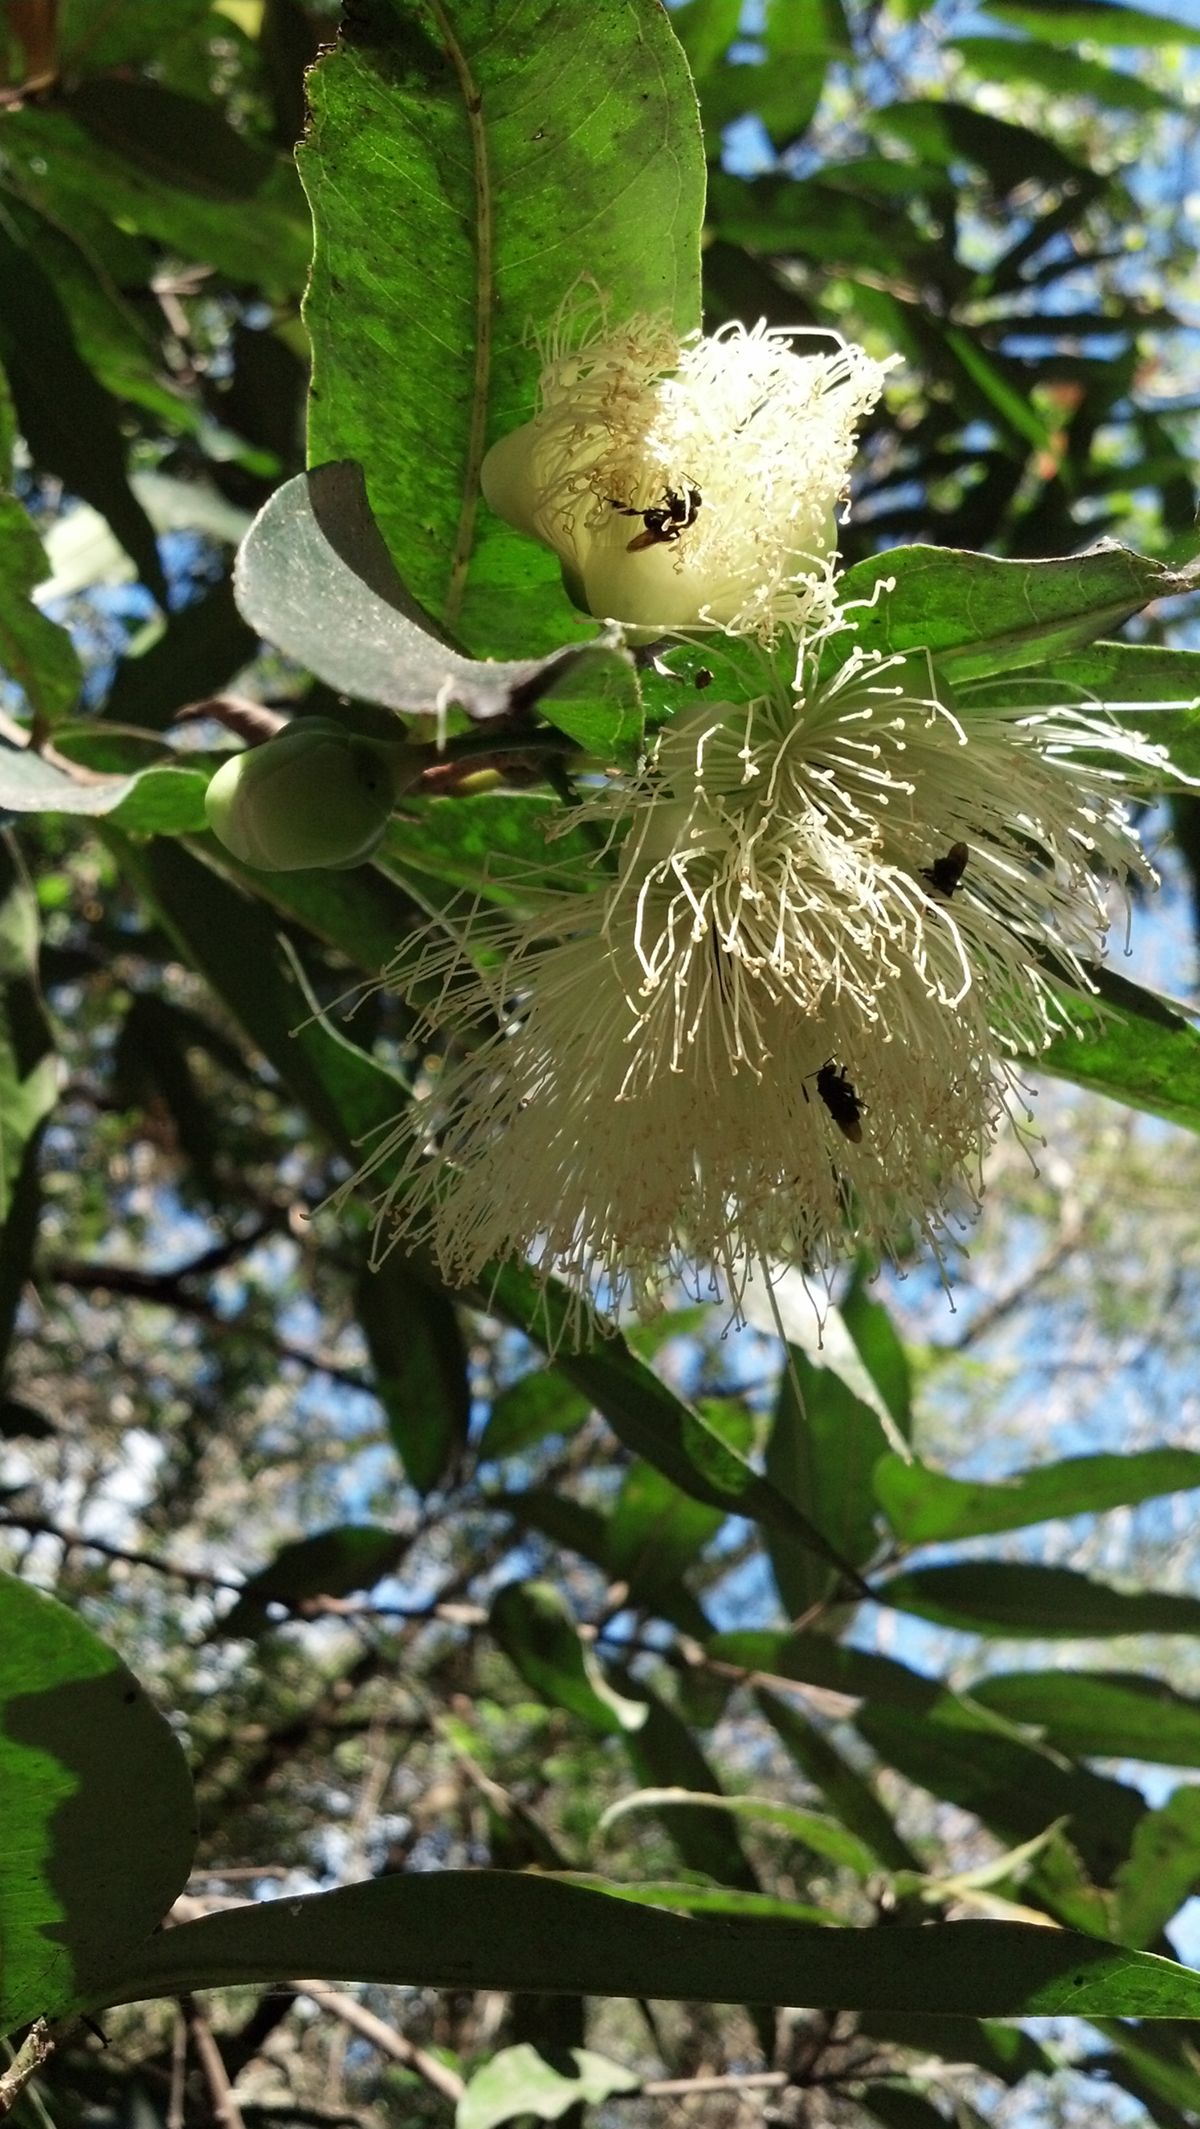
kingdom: Plantae
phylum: Tracheophyta
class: Magnoliopsida
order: Myrtales
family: Myrtaceae
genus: Syzygium
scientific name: Syzygium jambos
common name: Malabar plum
